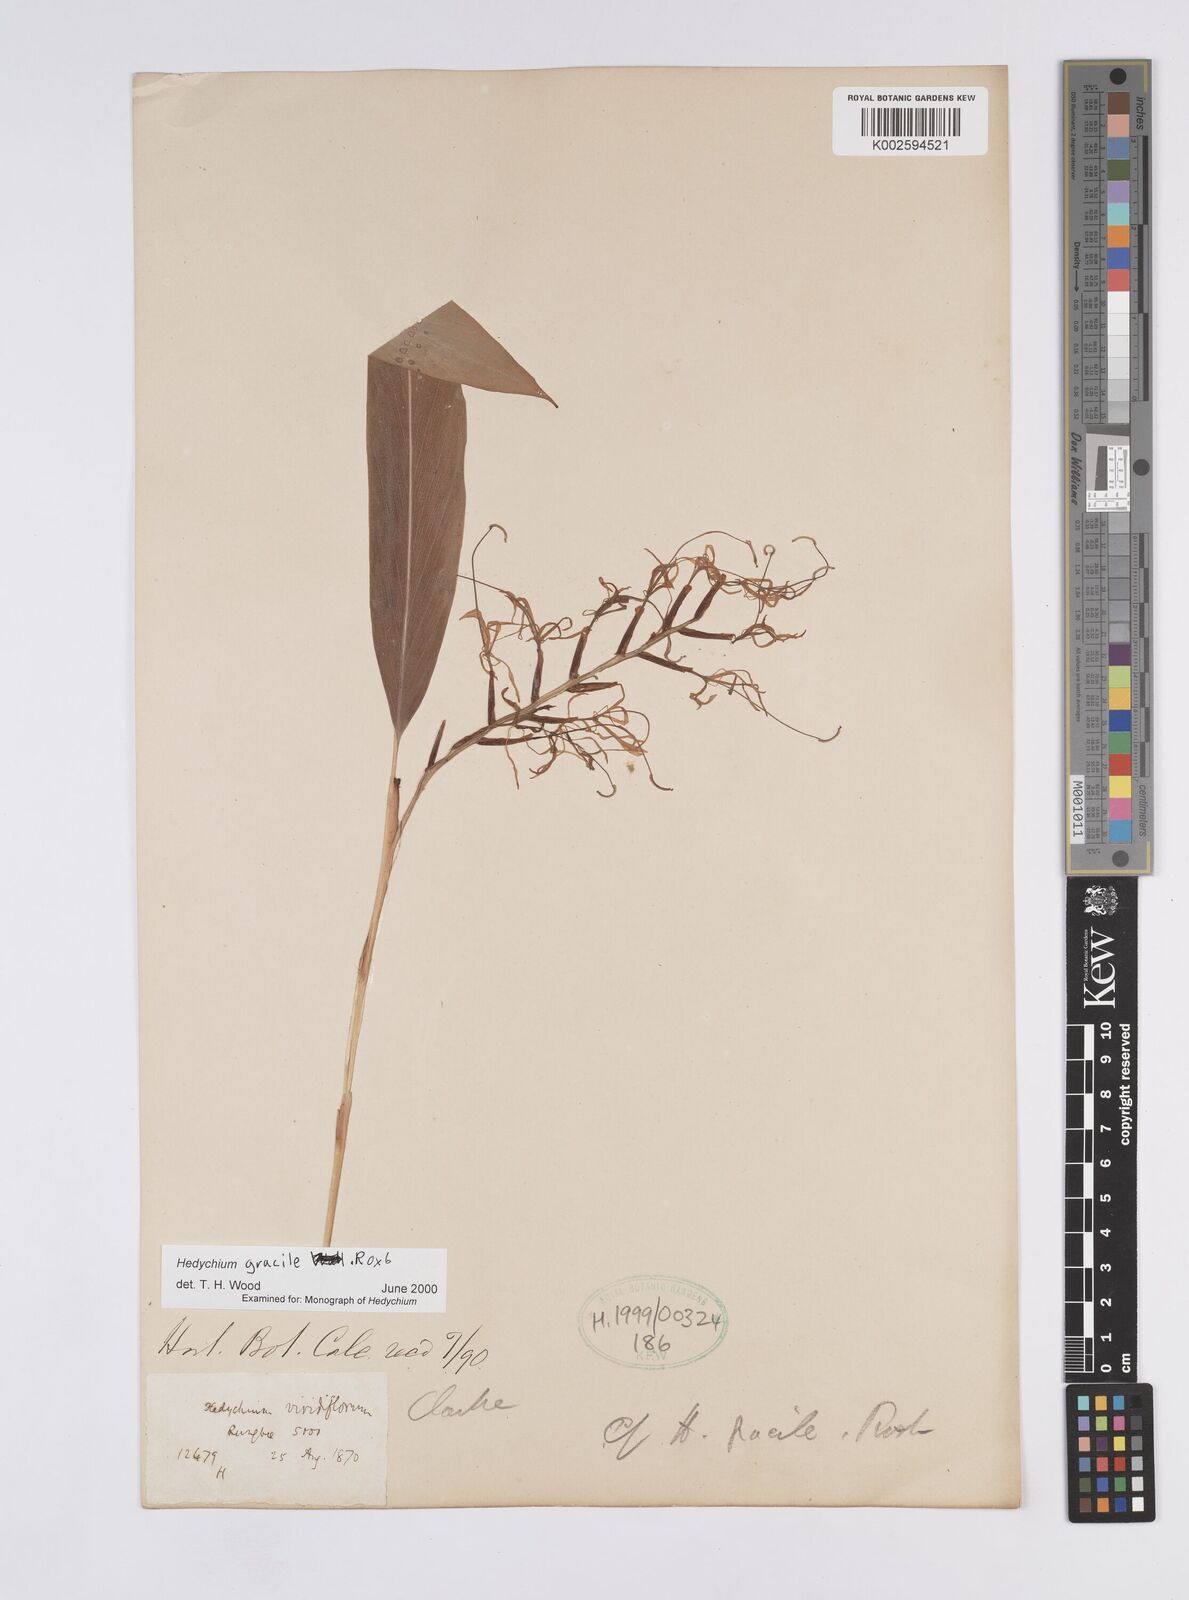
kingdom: Plantae
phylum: Tracheophyta
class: Liliopsida
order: Zingiberales
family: Zingiberaceae
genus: Hedychium
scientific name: Hedychium gracile
